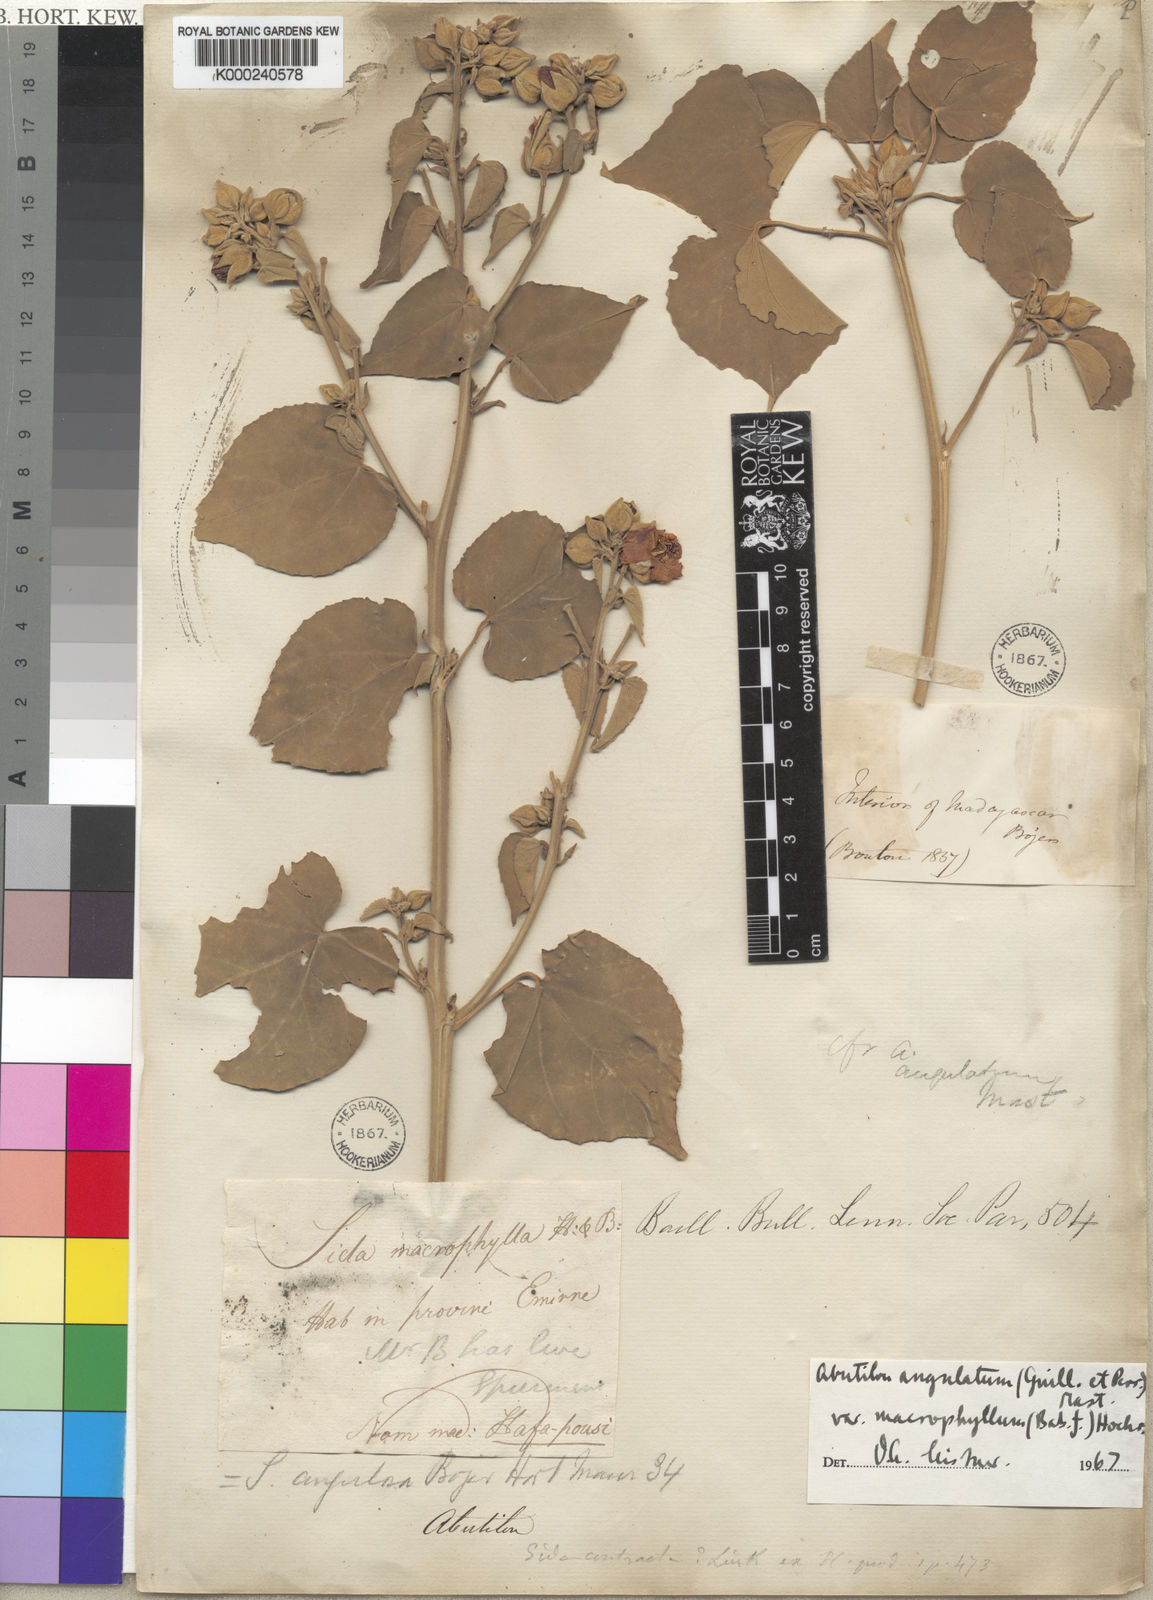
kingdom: Plantae
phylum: Tracheophyta
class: Magnoliopsida
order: Malvales
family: Malvaceae
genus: Abutilon
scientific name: Abutilon angulatum
